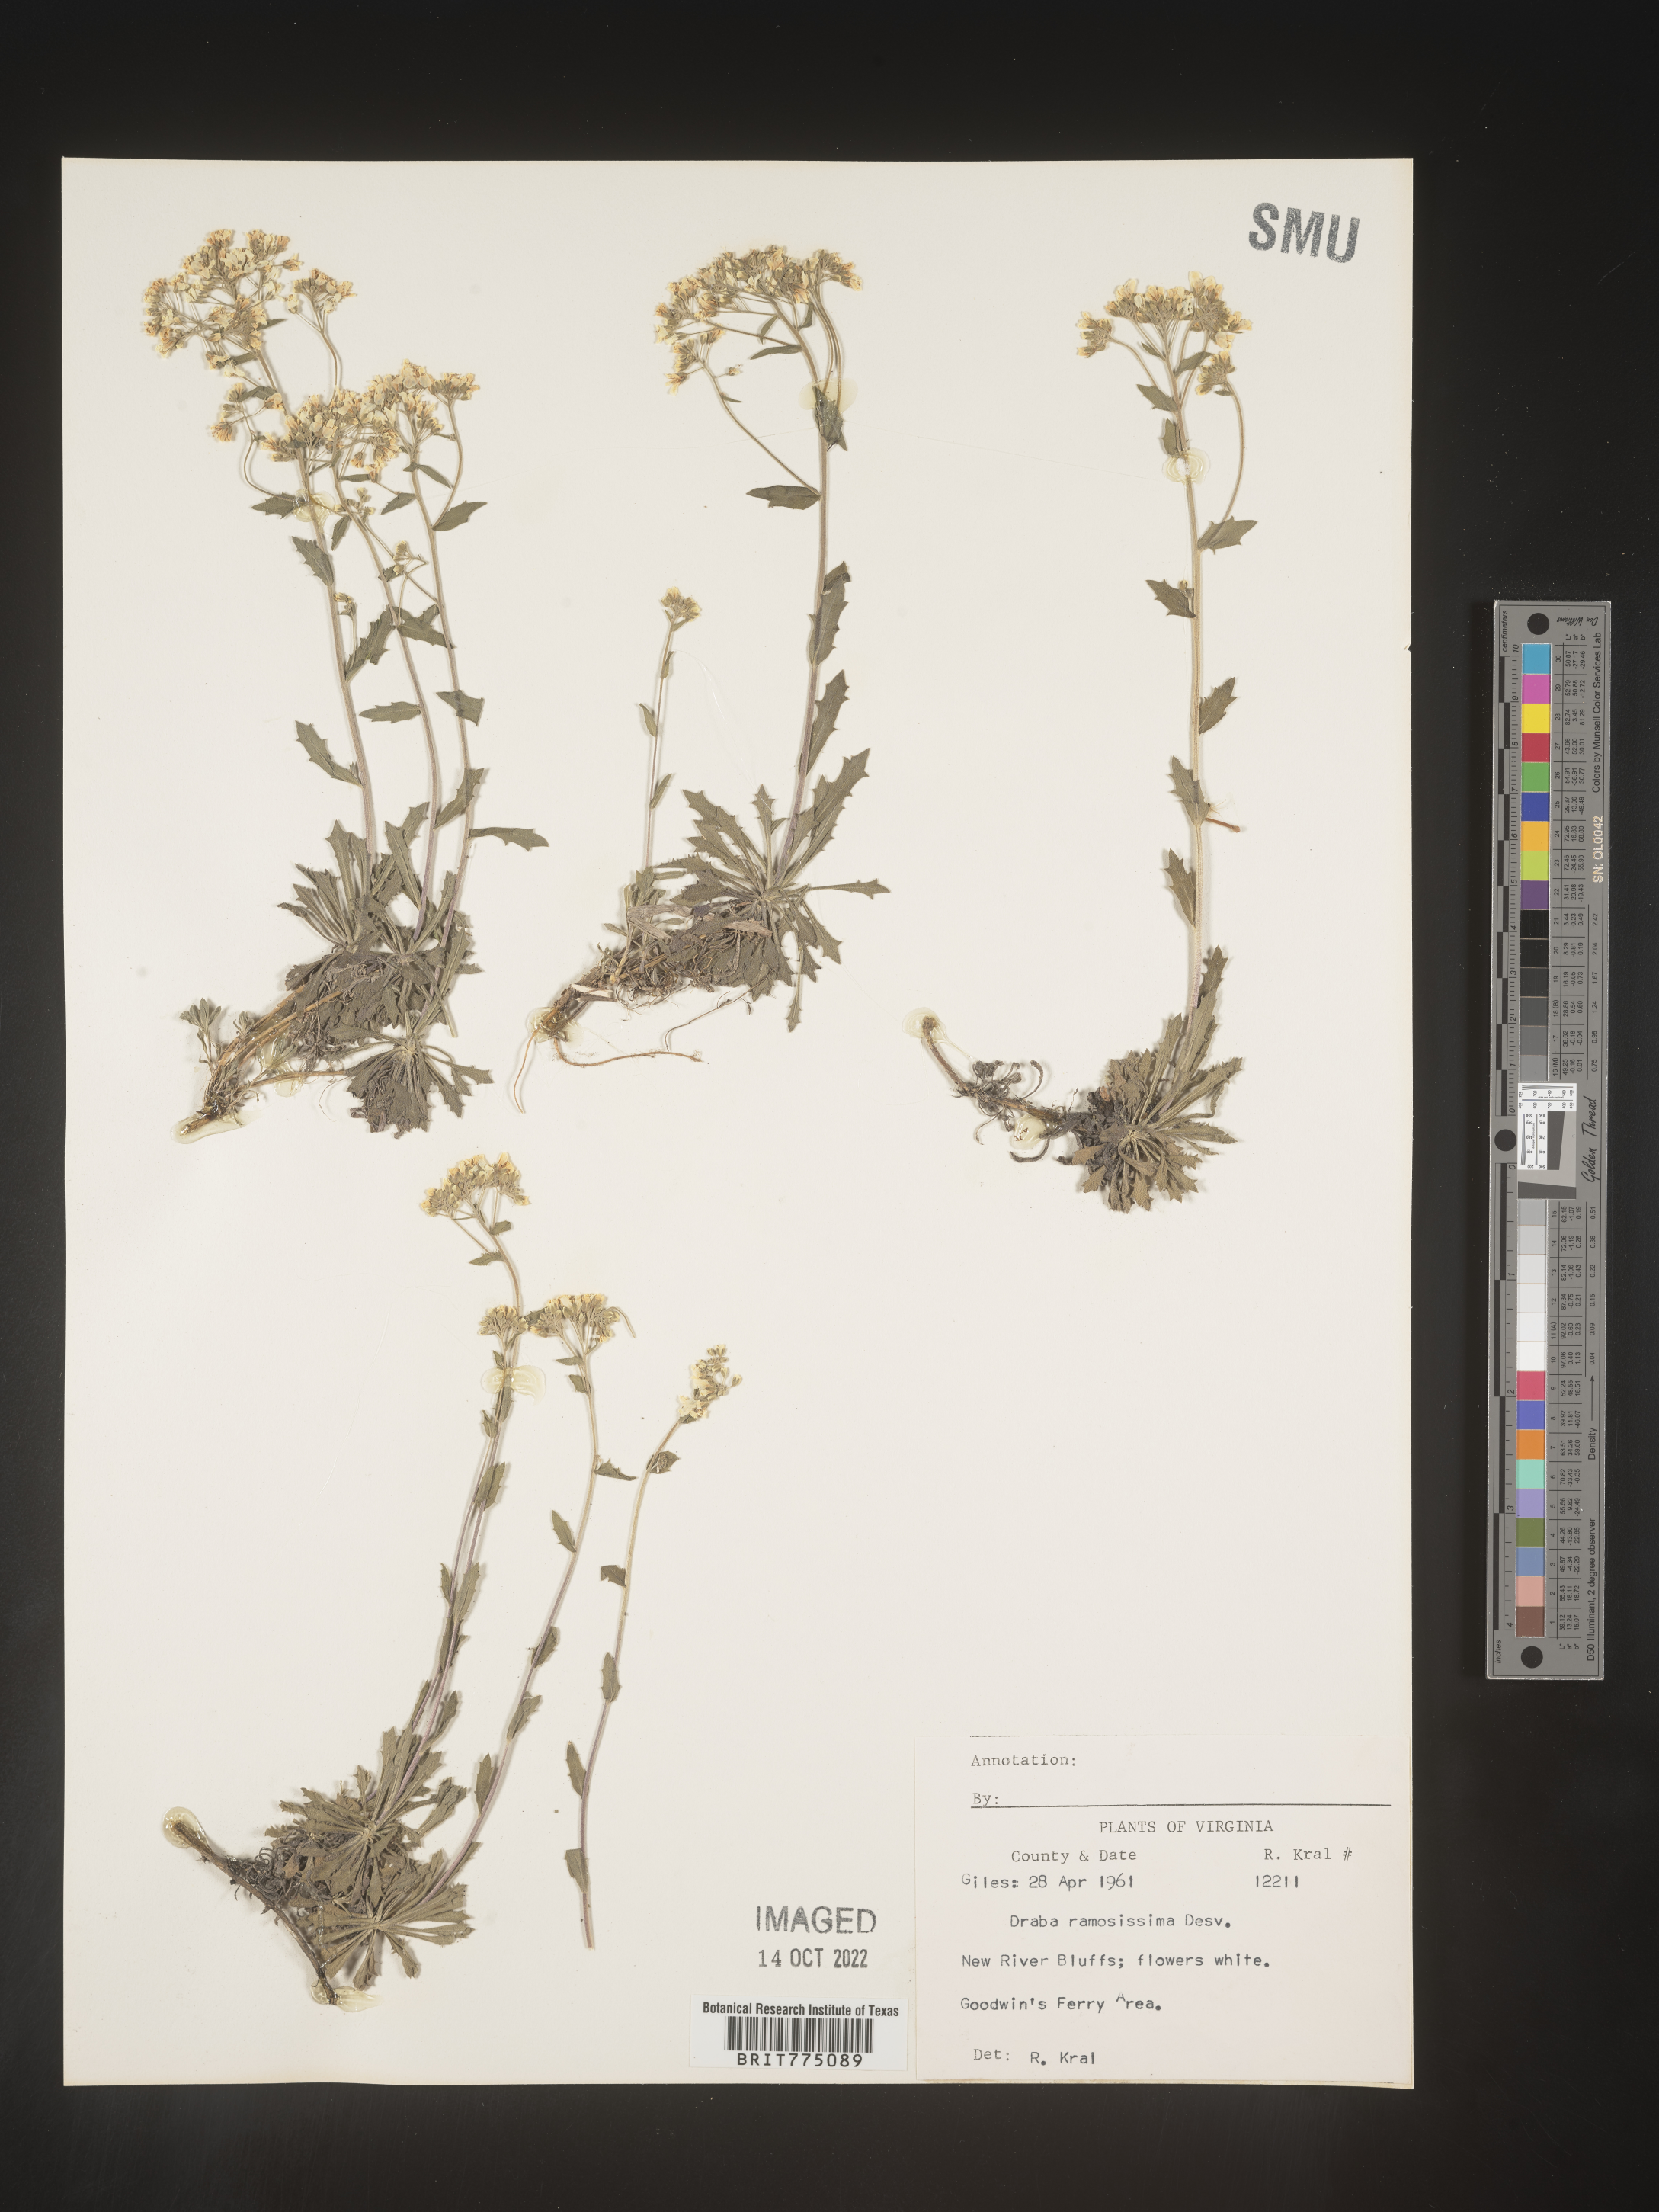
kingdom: Plantae
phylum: Tracheophyta
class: Magnoliopsida
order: Brassicales
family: Brassicaceae
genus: Draba
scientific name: Draba
